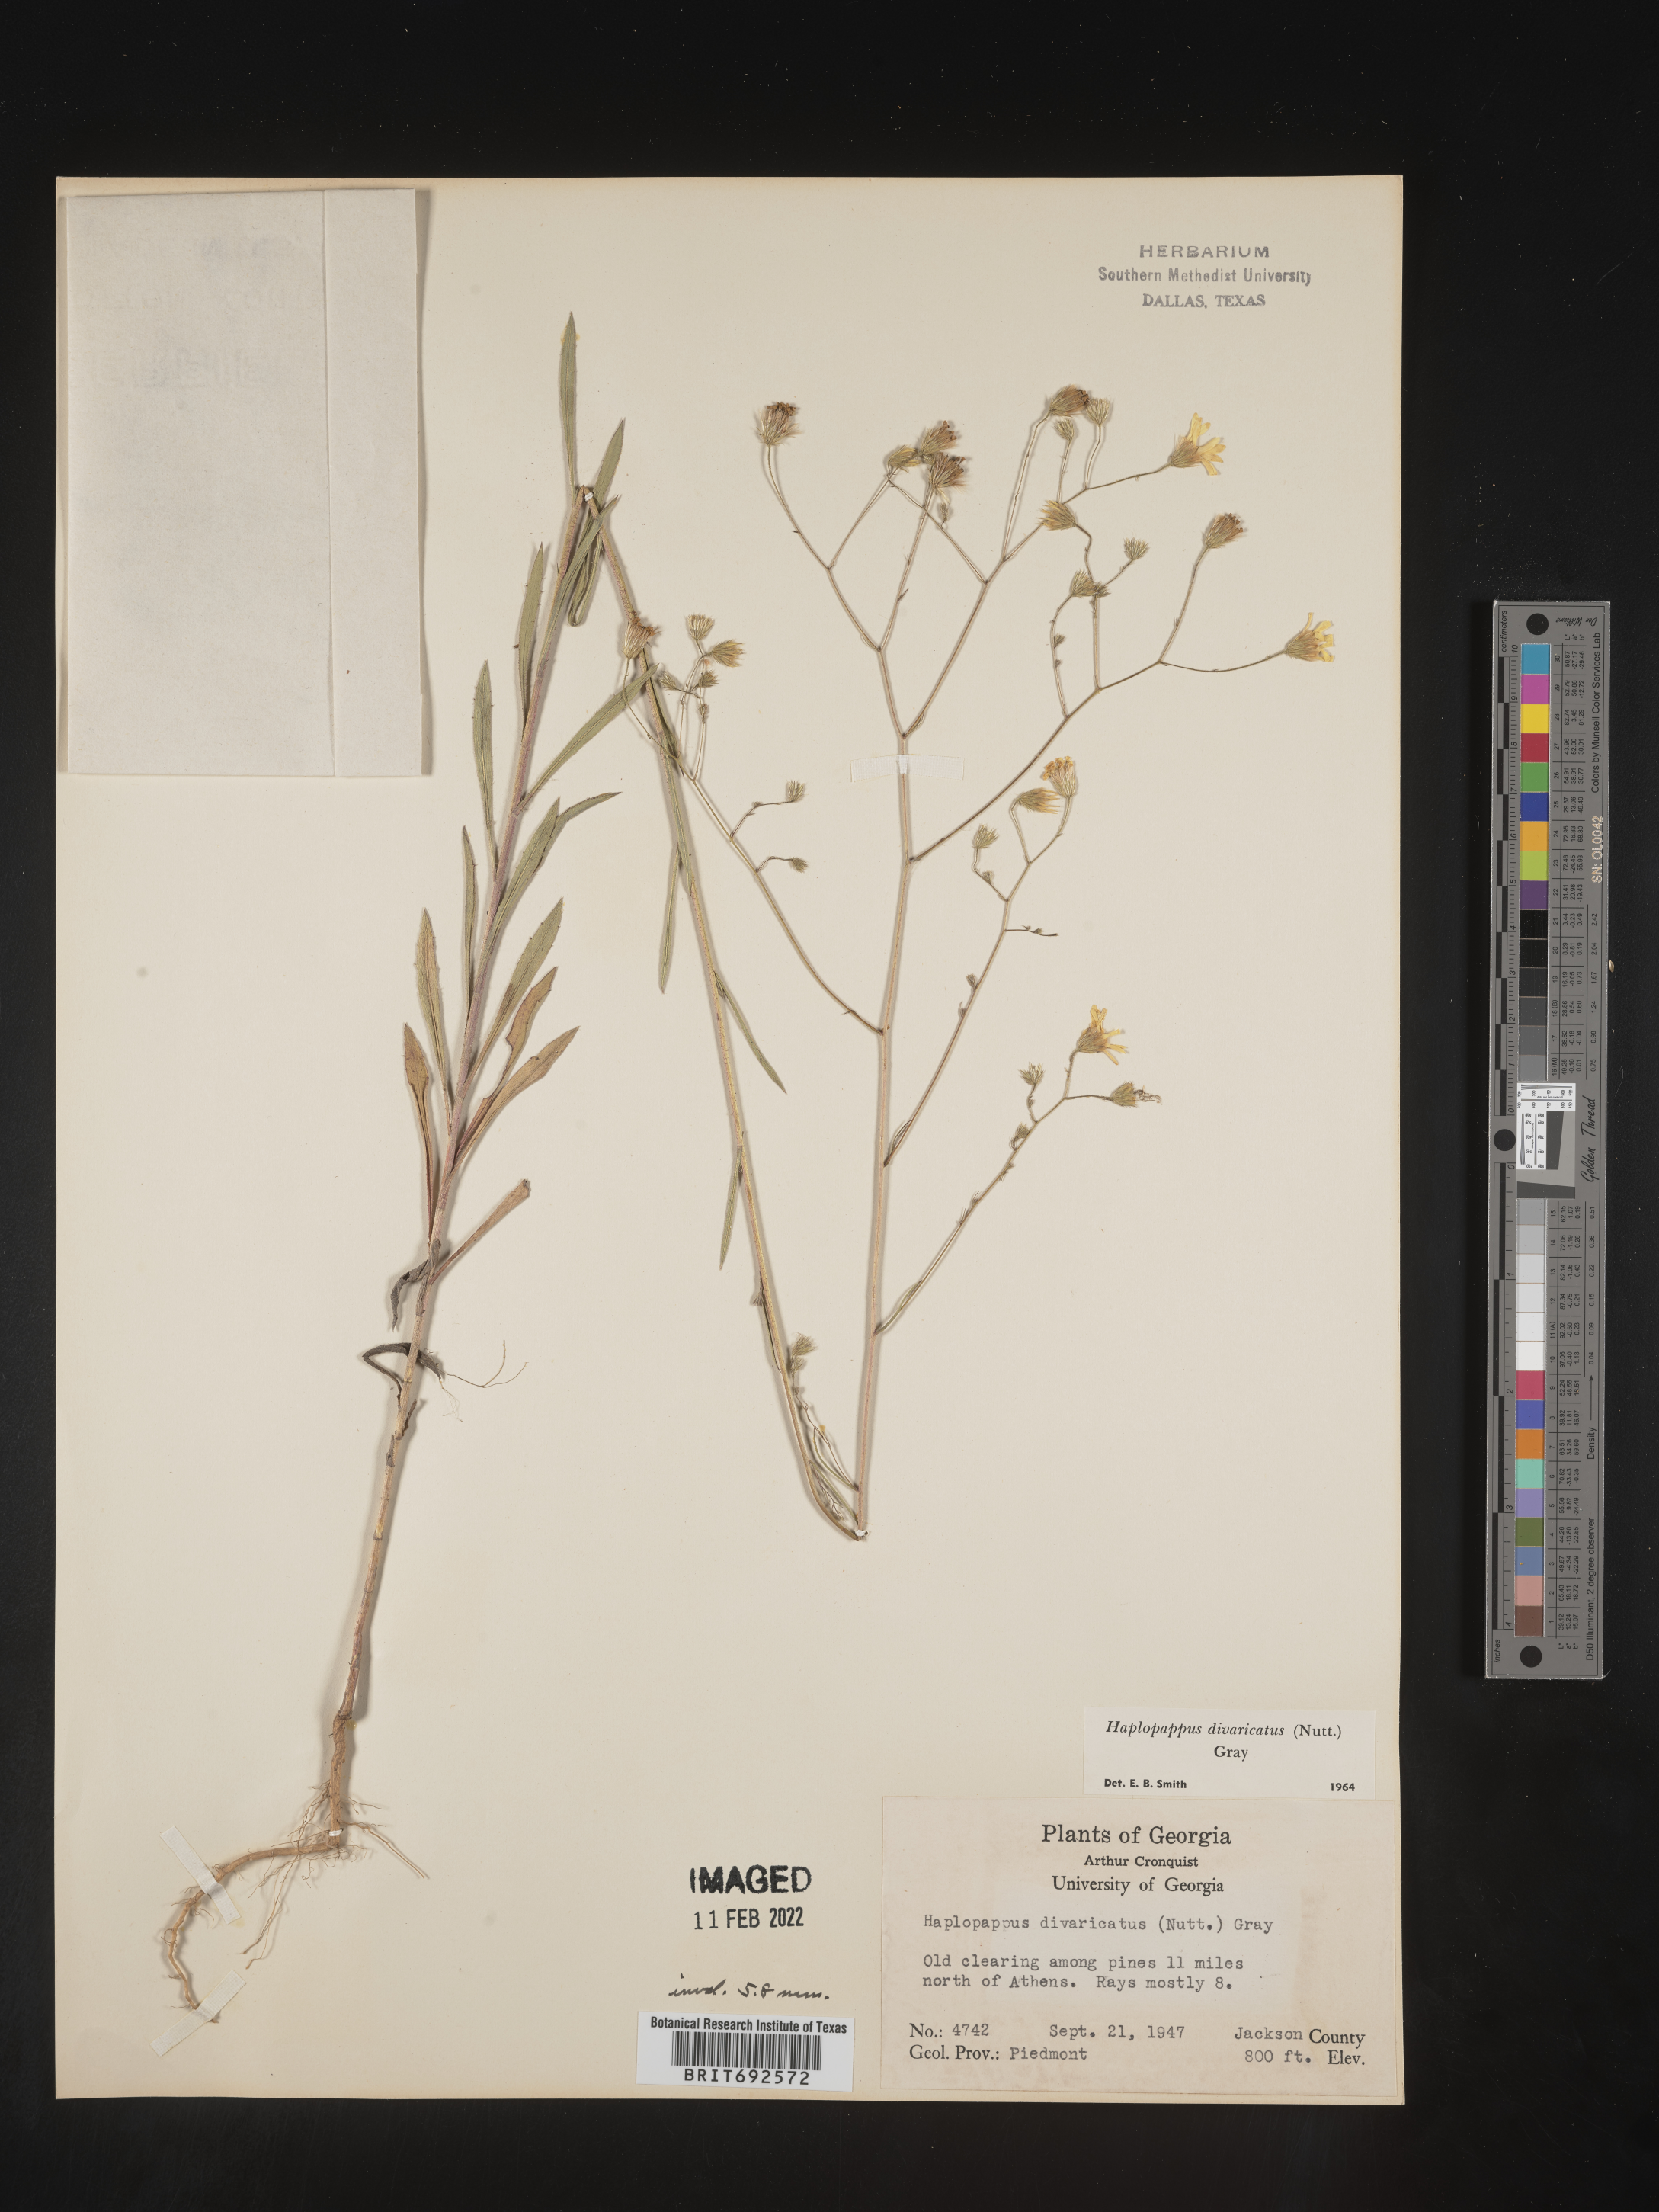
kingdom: Plantae
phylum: Tracheophyta
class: Magnoliopsida
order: Asterales
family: Asteraceae
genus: Croptilon
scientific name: Croptilon divaricatum
